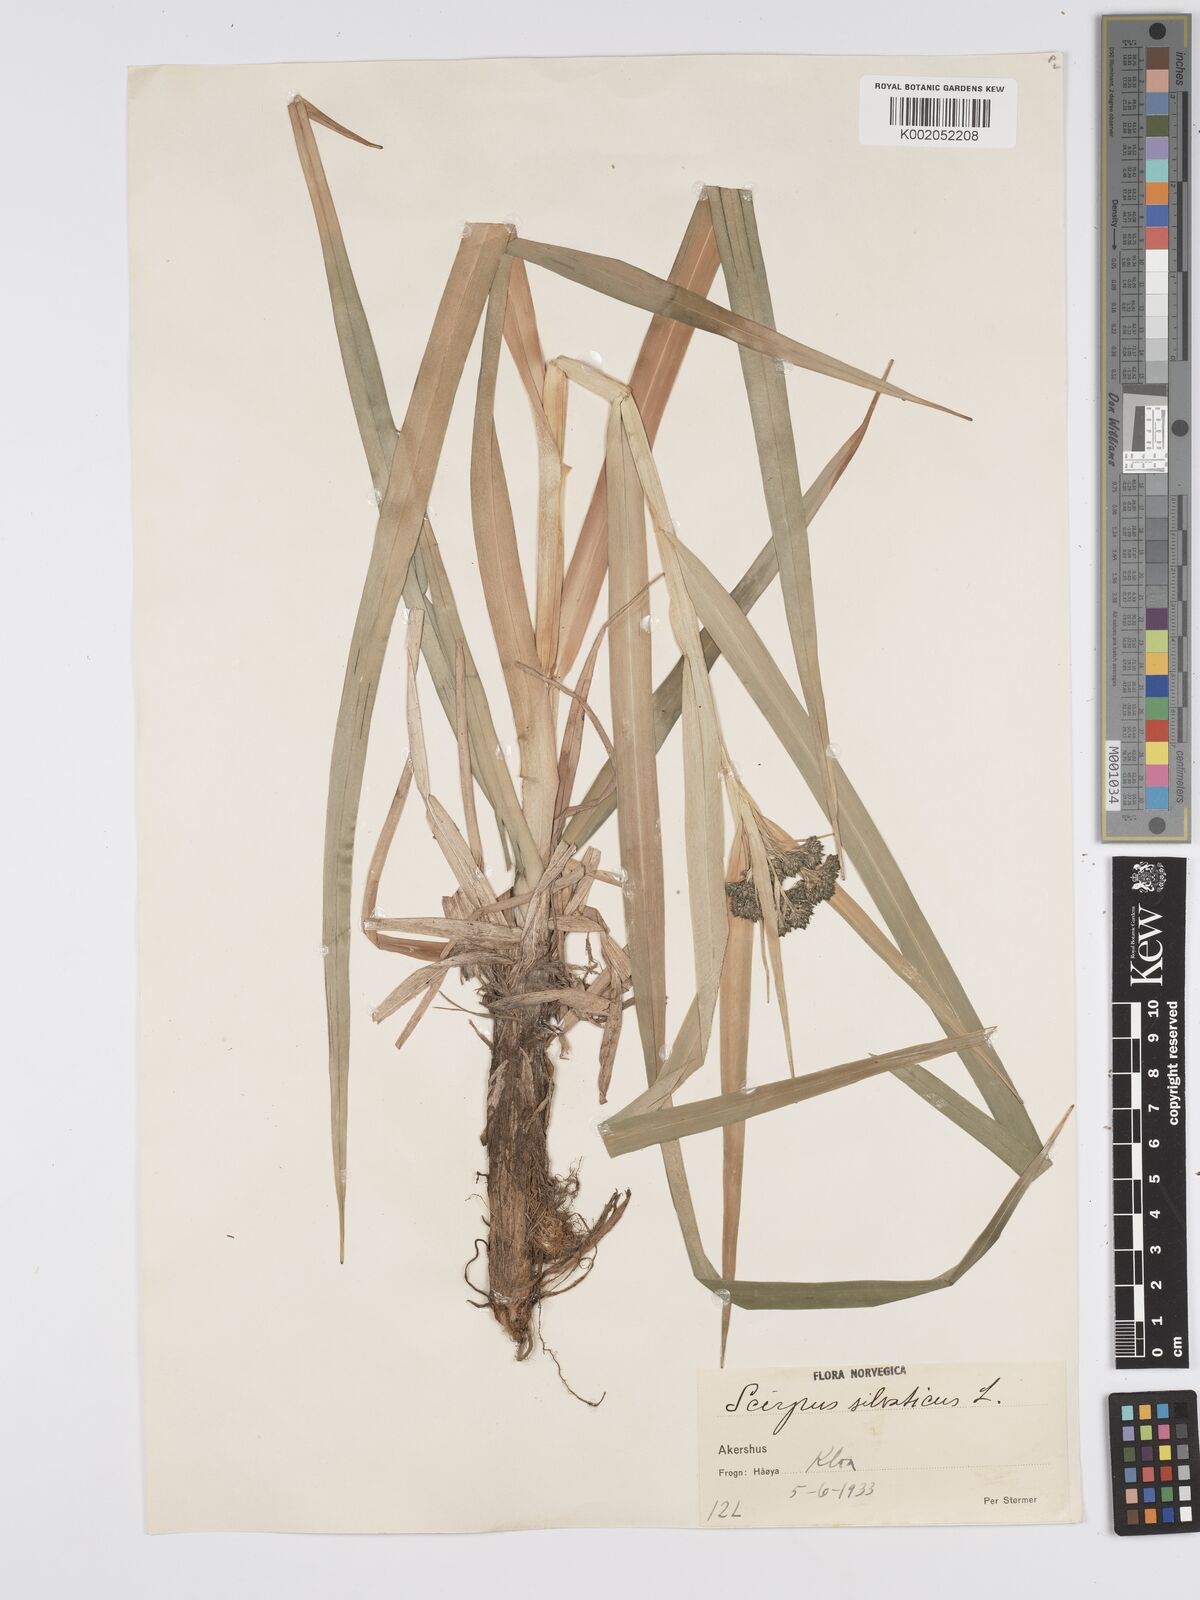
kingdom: Plantae
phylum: Tracheophyta
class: Liliopsida
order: Poales
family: Cyperaceae
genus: Scirpus
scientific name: Scirpus sylvaticus
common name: Wood club-rush
